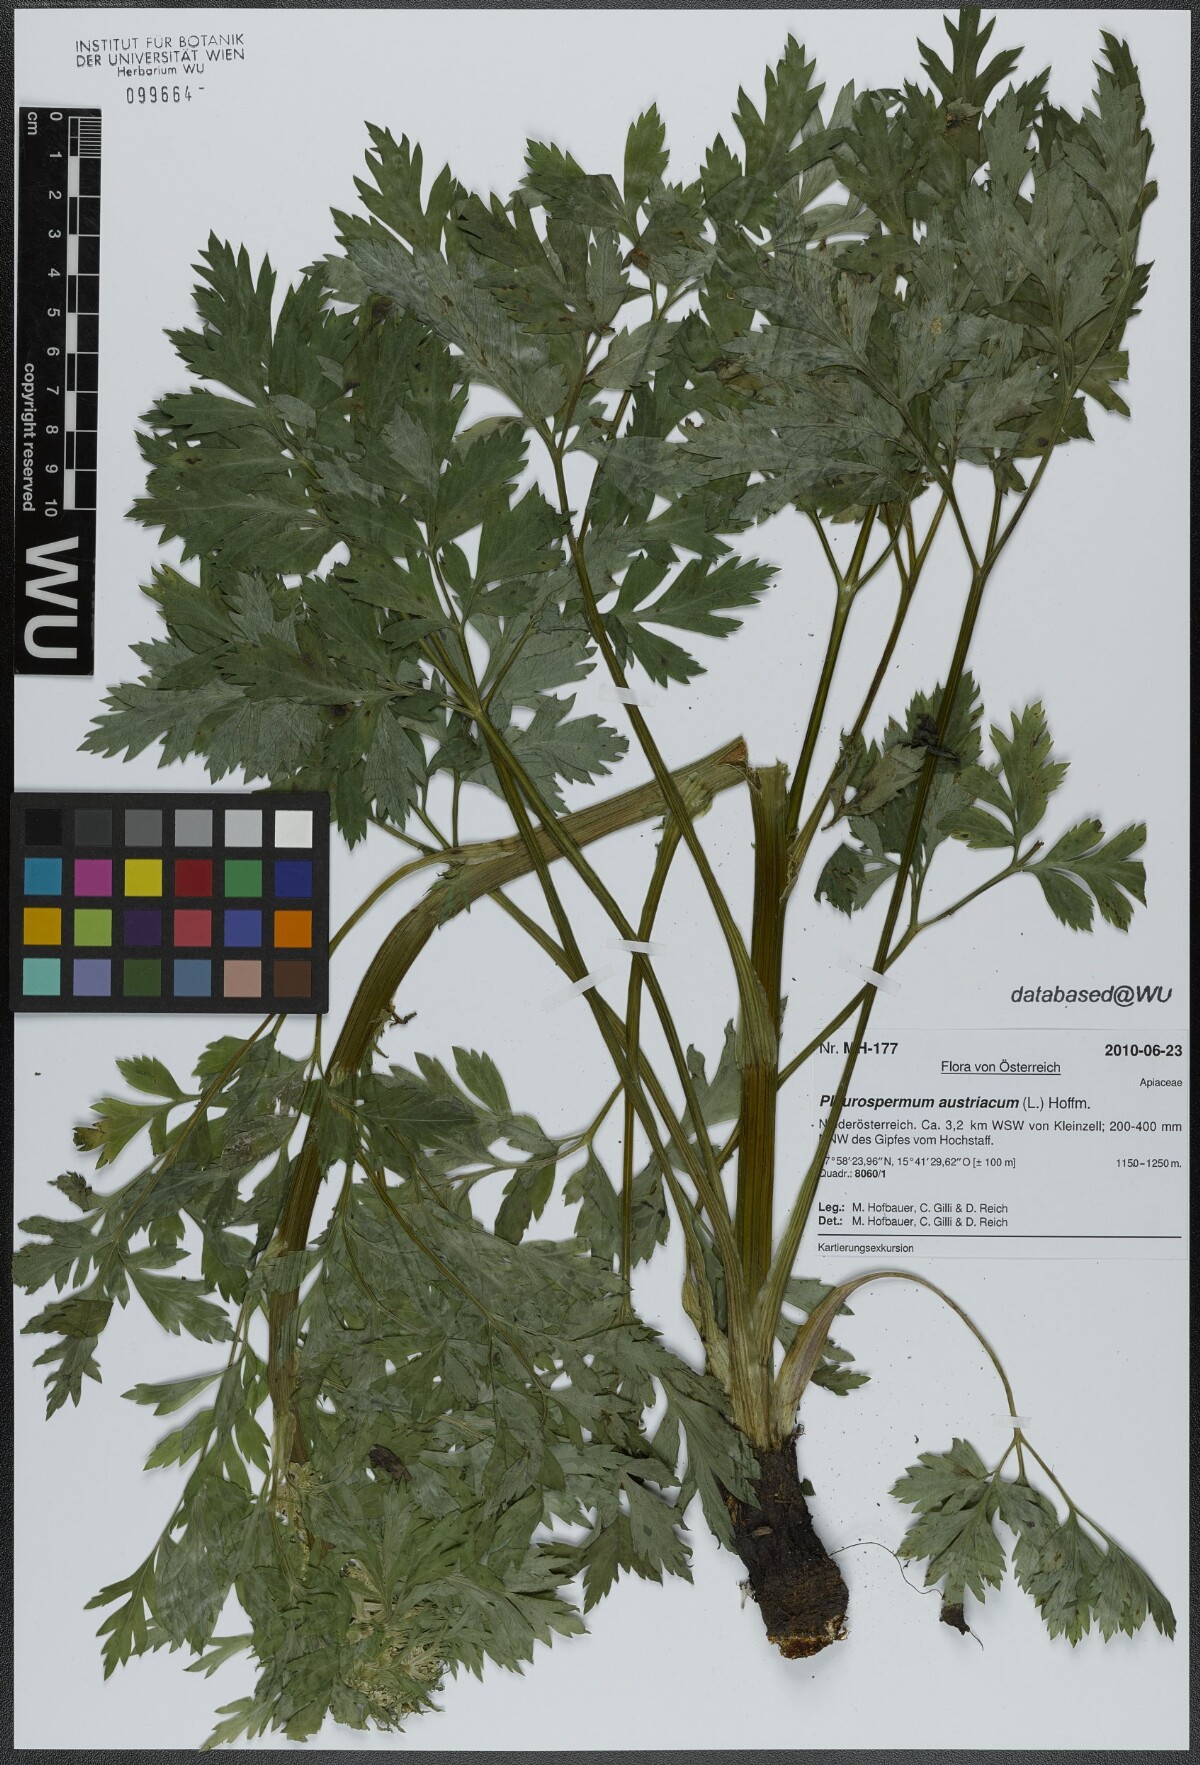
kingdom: Plantae
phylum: Tracheophyta
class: Magnoliopsida
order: Apiales
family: Apiaceae
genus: Pleurospermum
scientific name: Pleurospermum austriacum
